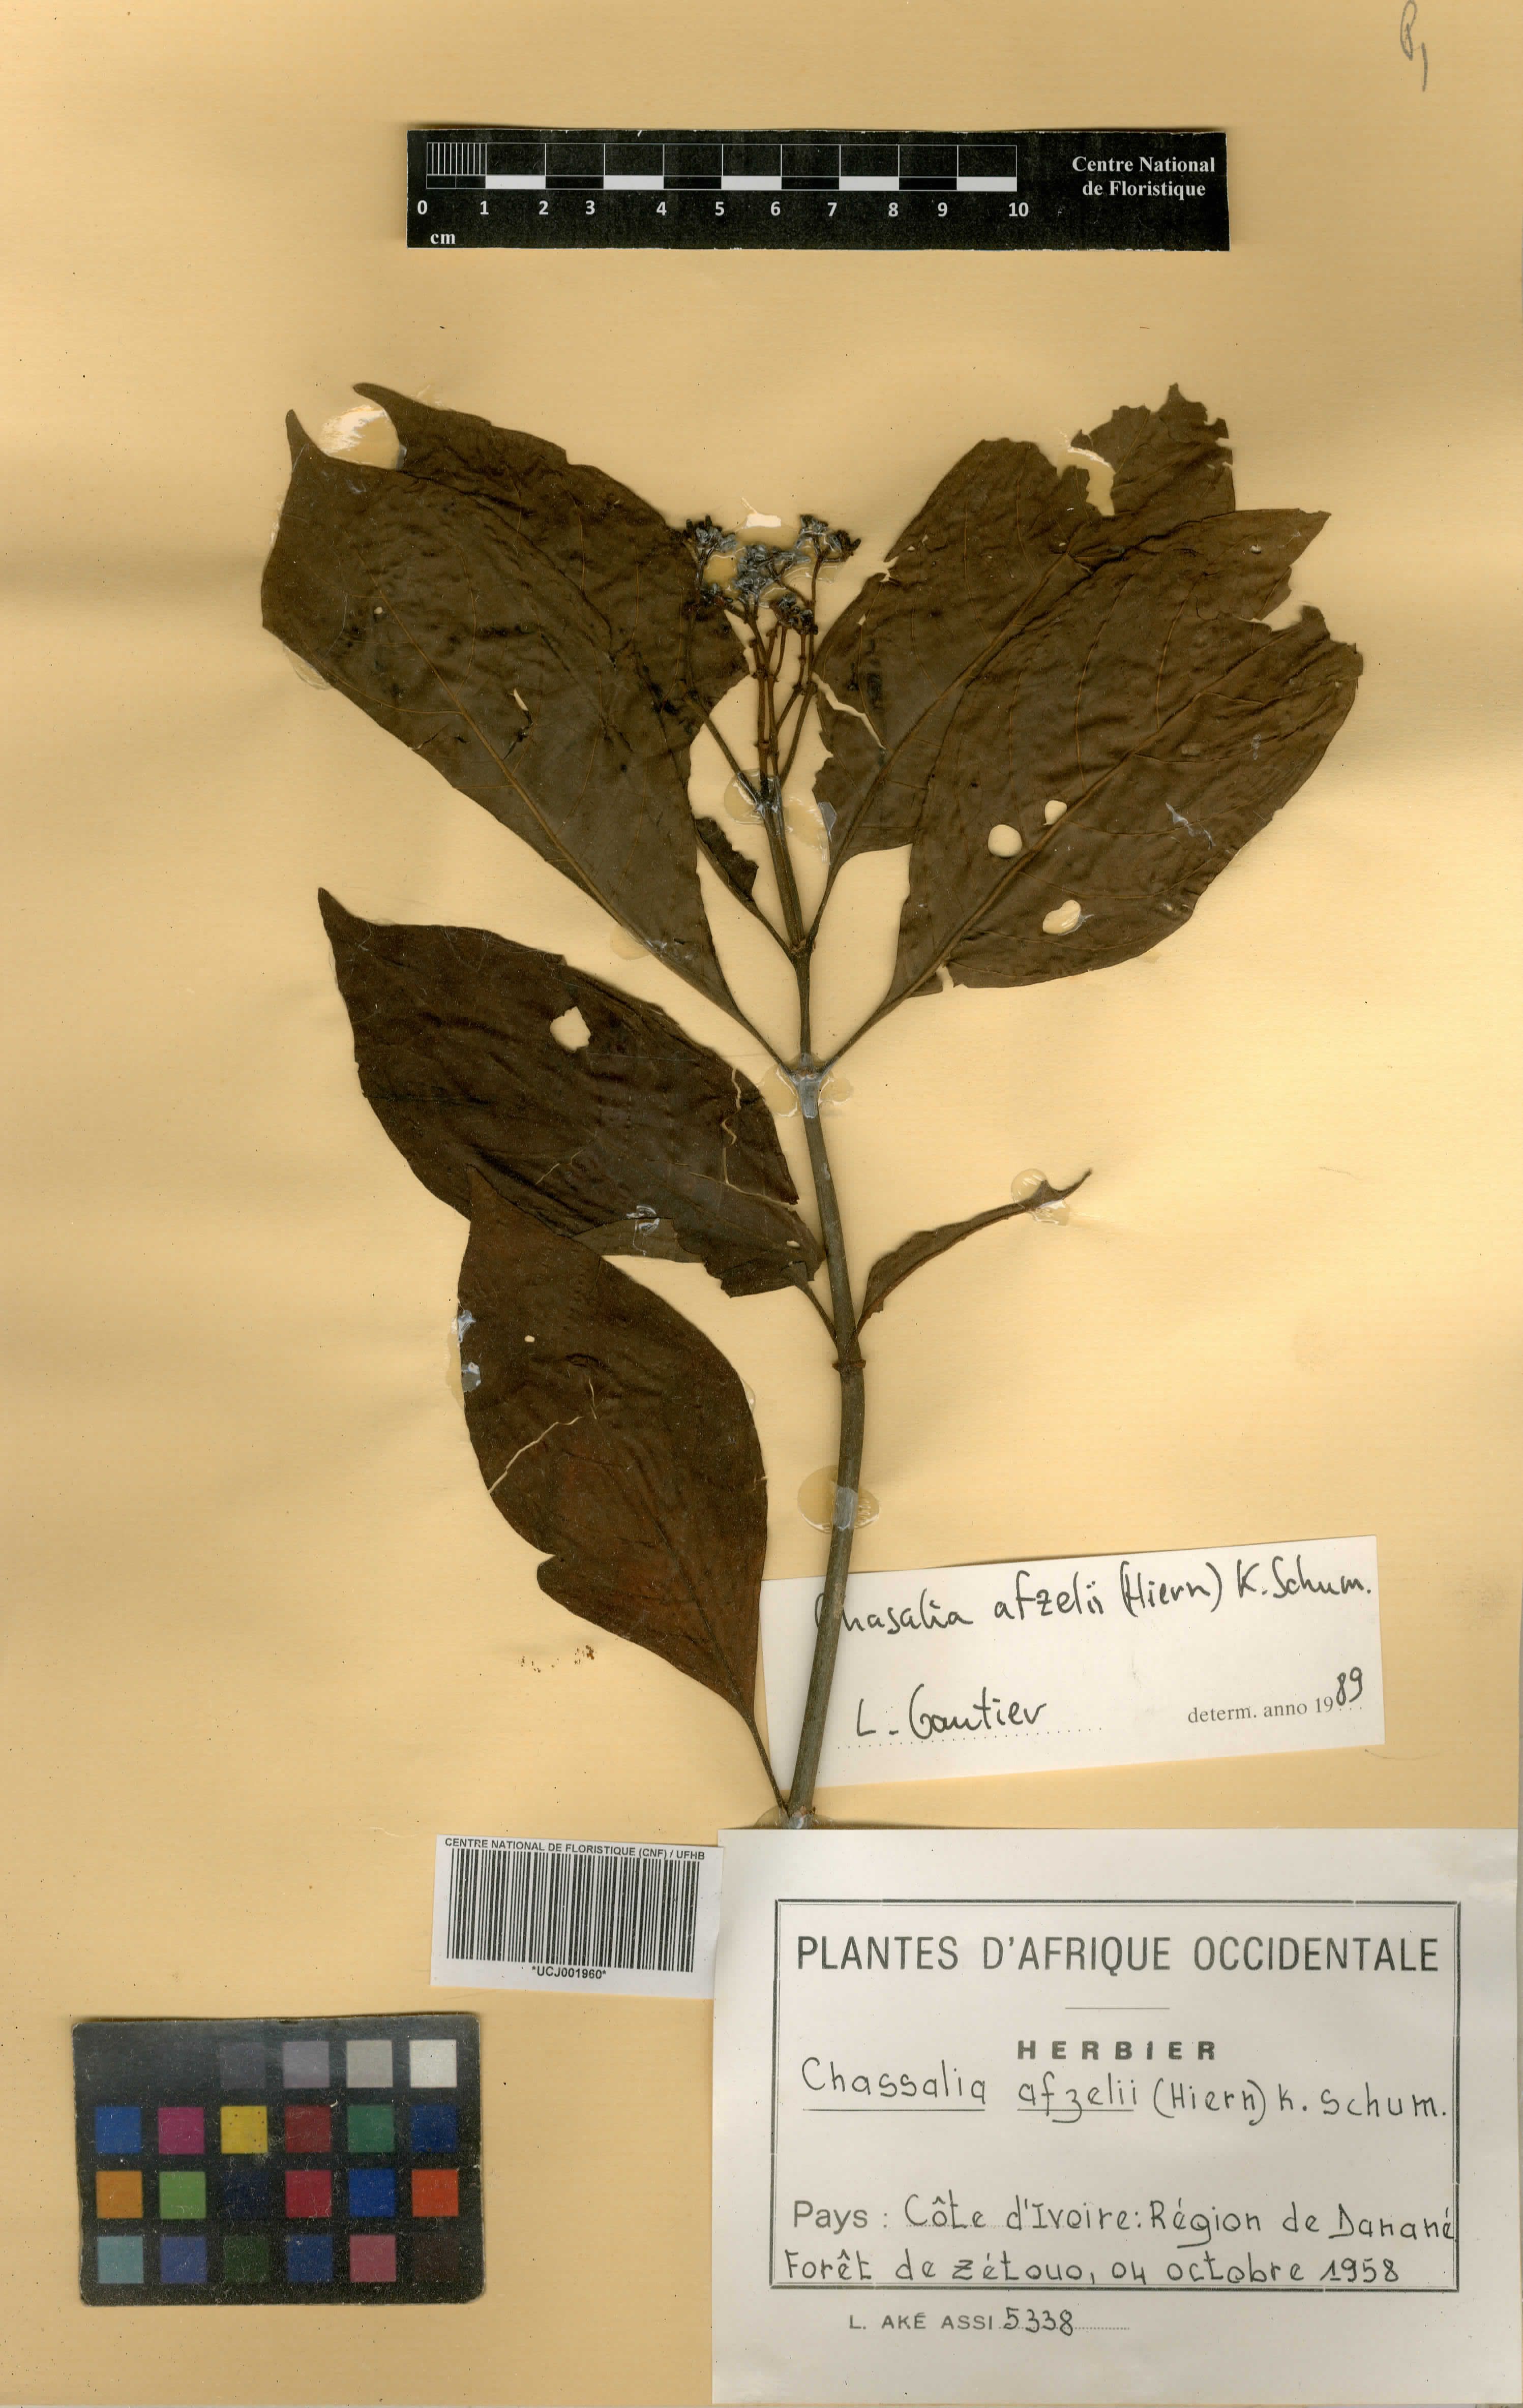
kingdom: Plantae
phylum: Tracheophyta
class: Magnoliopsida
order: Gentianales
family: Rubiaceae
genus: Chassalia
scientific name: Chassalia afzelii
